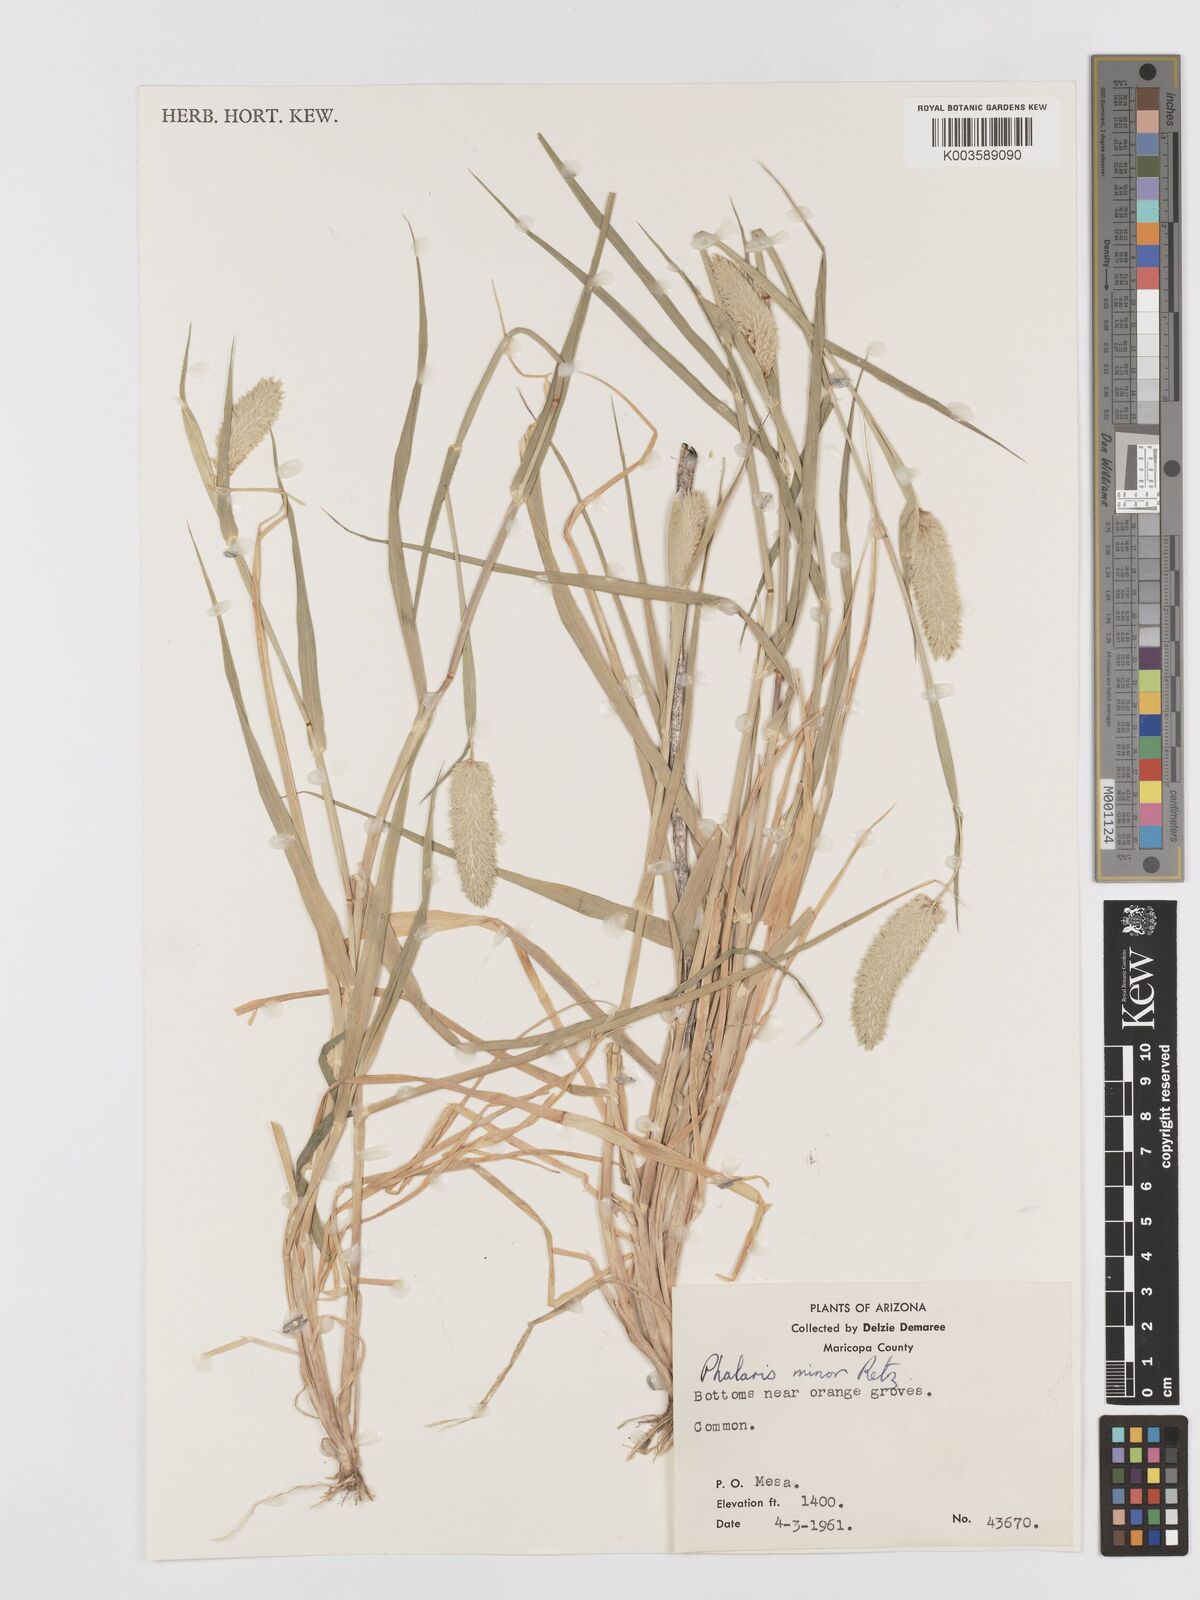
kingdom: Plantae
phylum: Tracheophyta
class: Liliopsida
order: Poales
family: Poaceae
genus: Phalaris
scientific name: Phalaris minor
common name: Littleseed canarygrass
